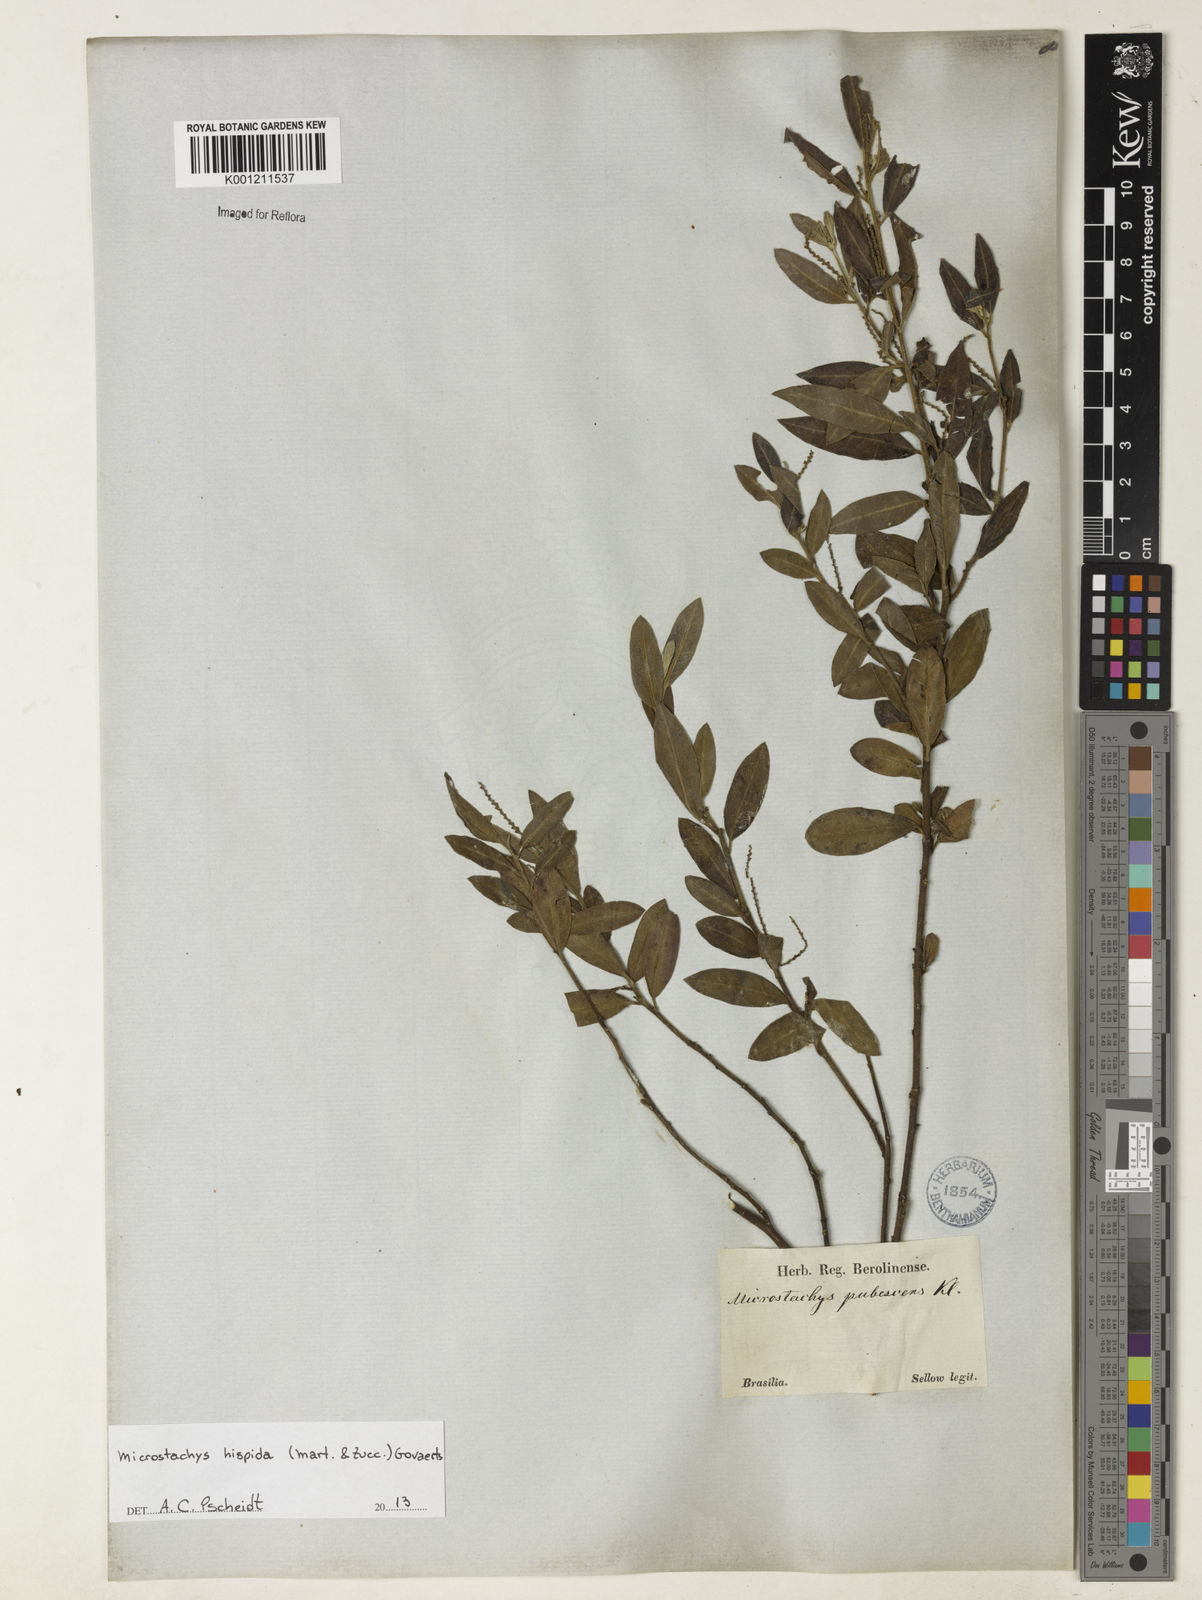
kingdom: Plantae
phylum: Tracheophyta
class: Magnoliopsida
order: Malpighiales
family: Euphorbiaceae
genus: Microstachys
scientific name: Microstachys hispida
